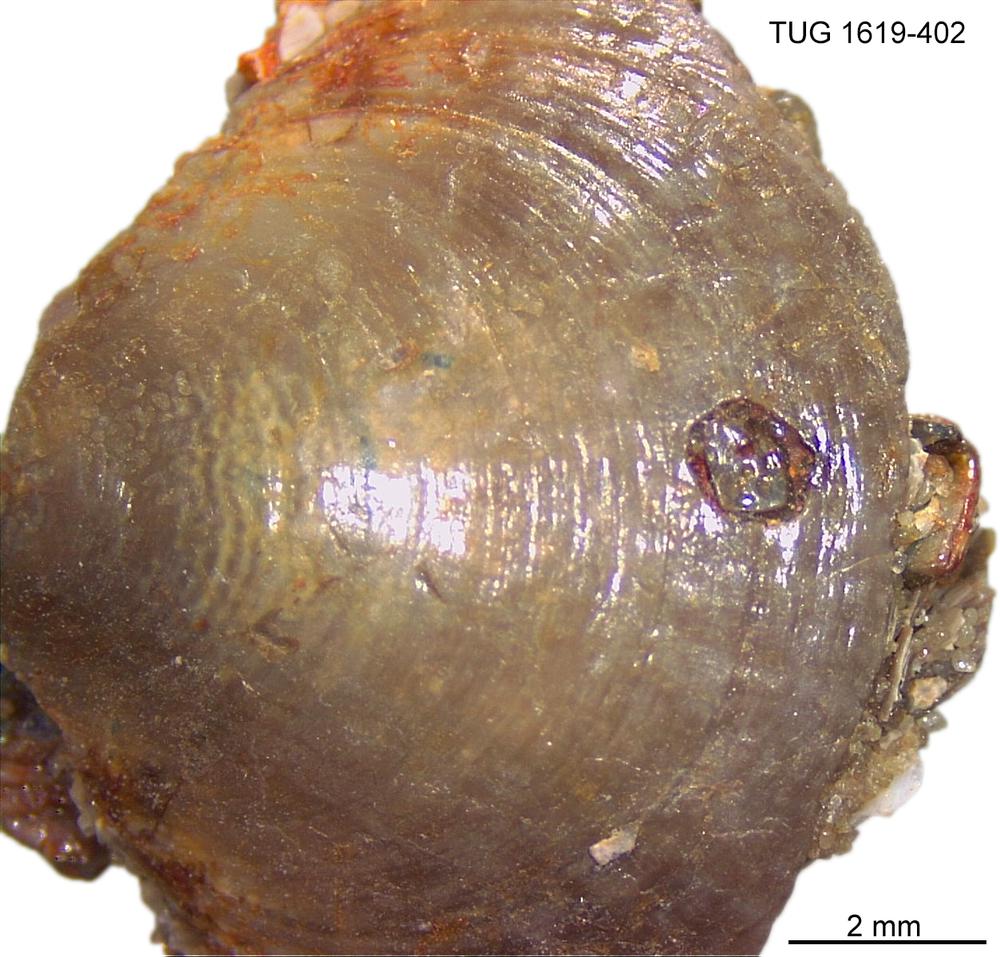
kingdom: Animalia
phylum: Porifera
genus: Ungula
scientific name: Ungula
